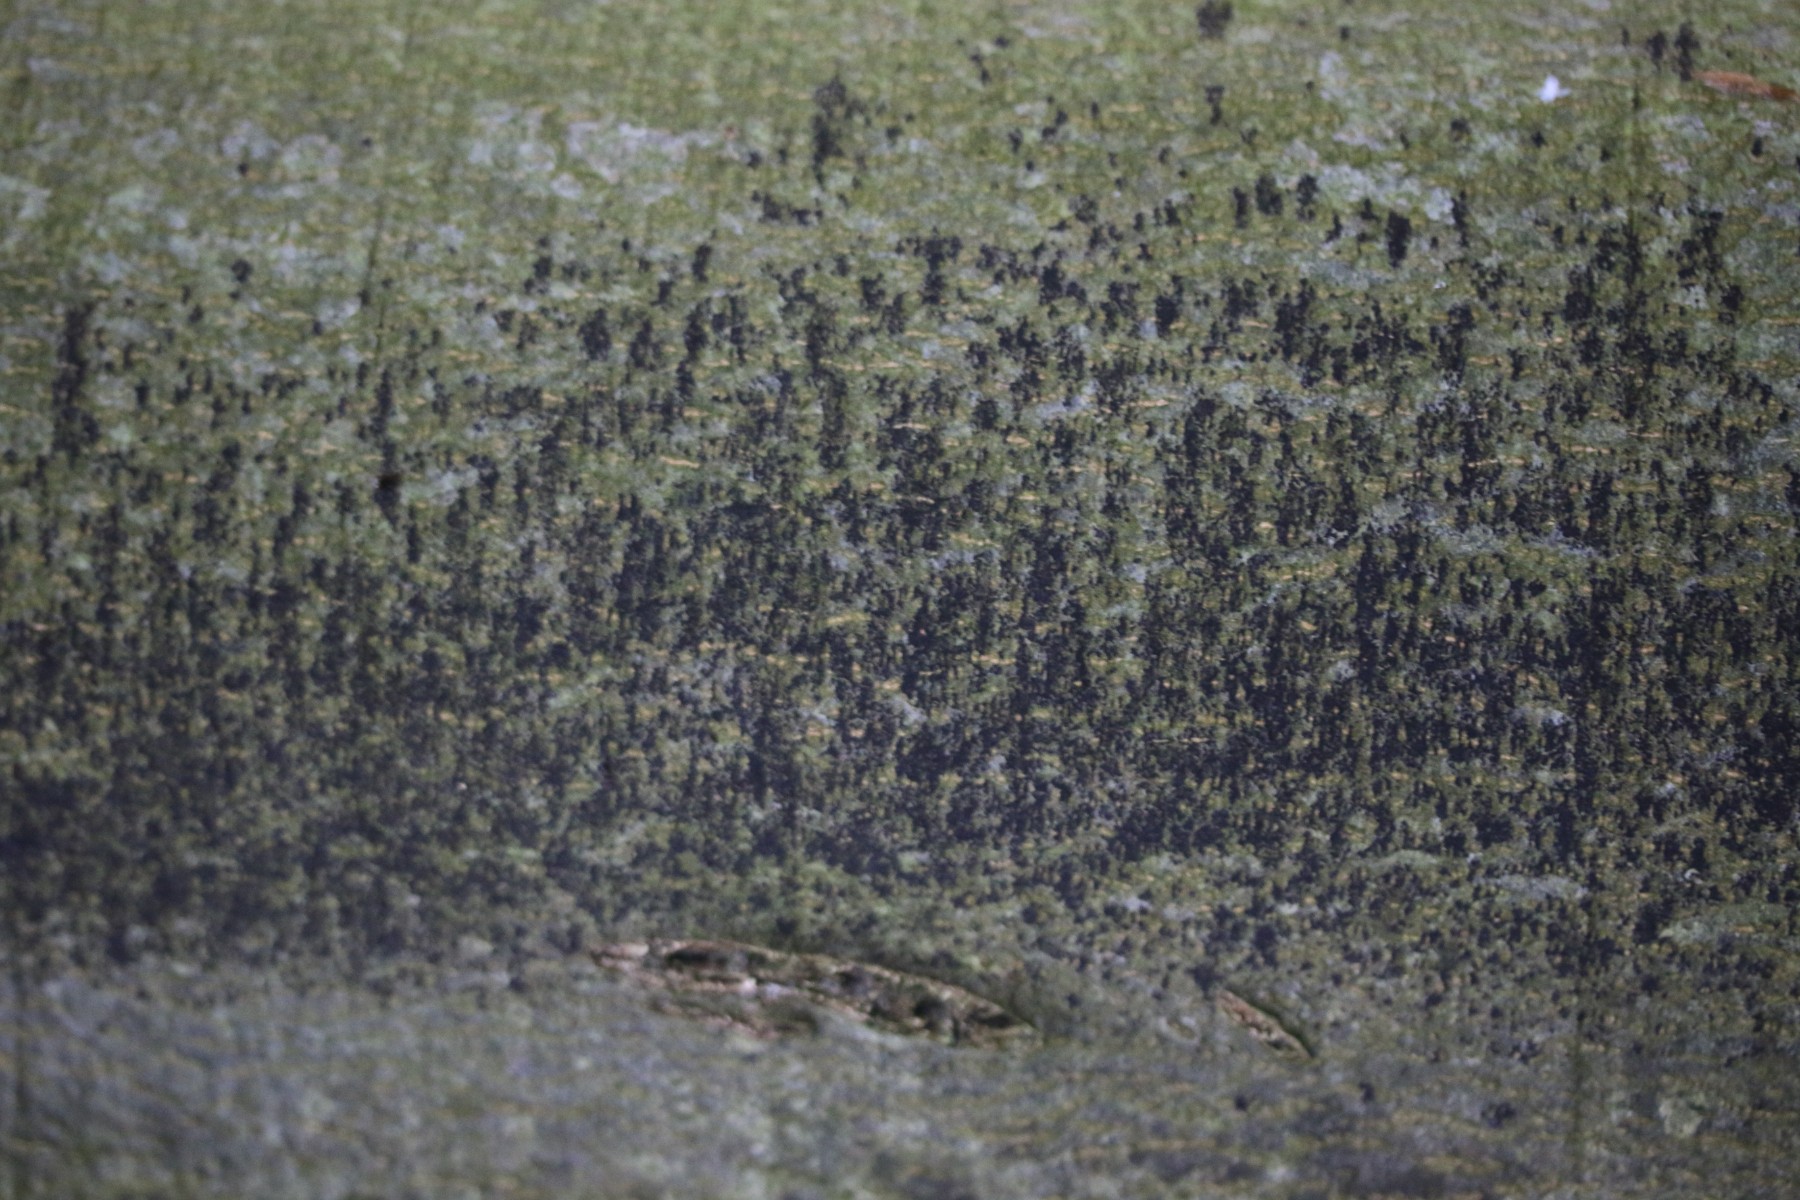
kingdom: Fungi
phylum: Ascomycota
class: Leotiomycetes
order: Rhytismatales
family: Ascodichaenaceae
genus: Ascodichaena
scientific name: Ascodichaena rugosa
